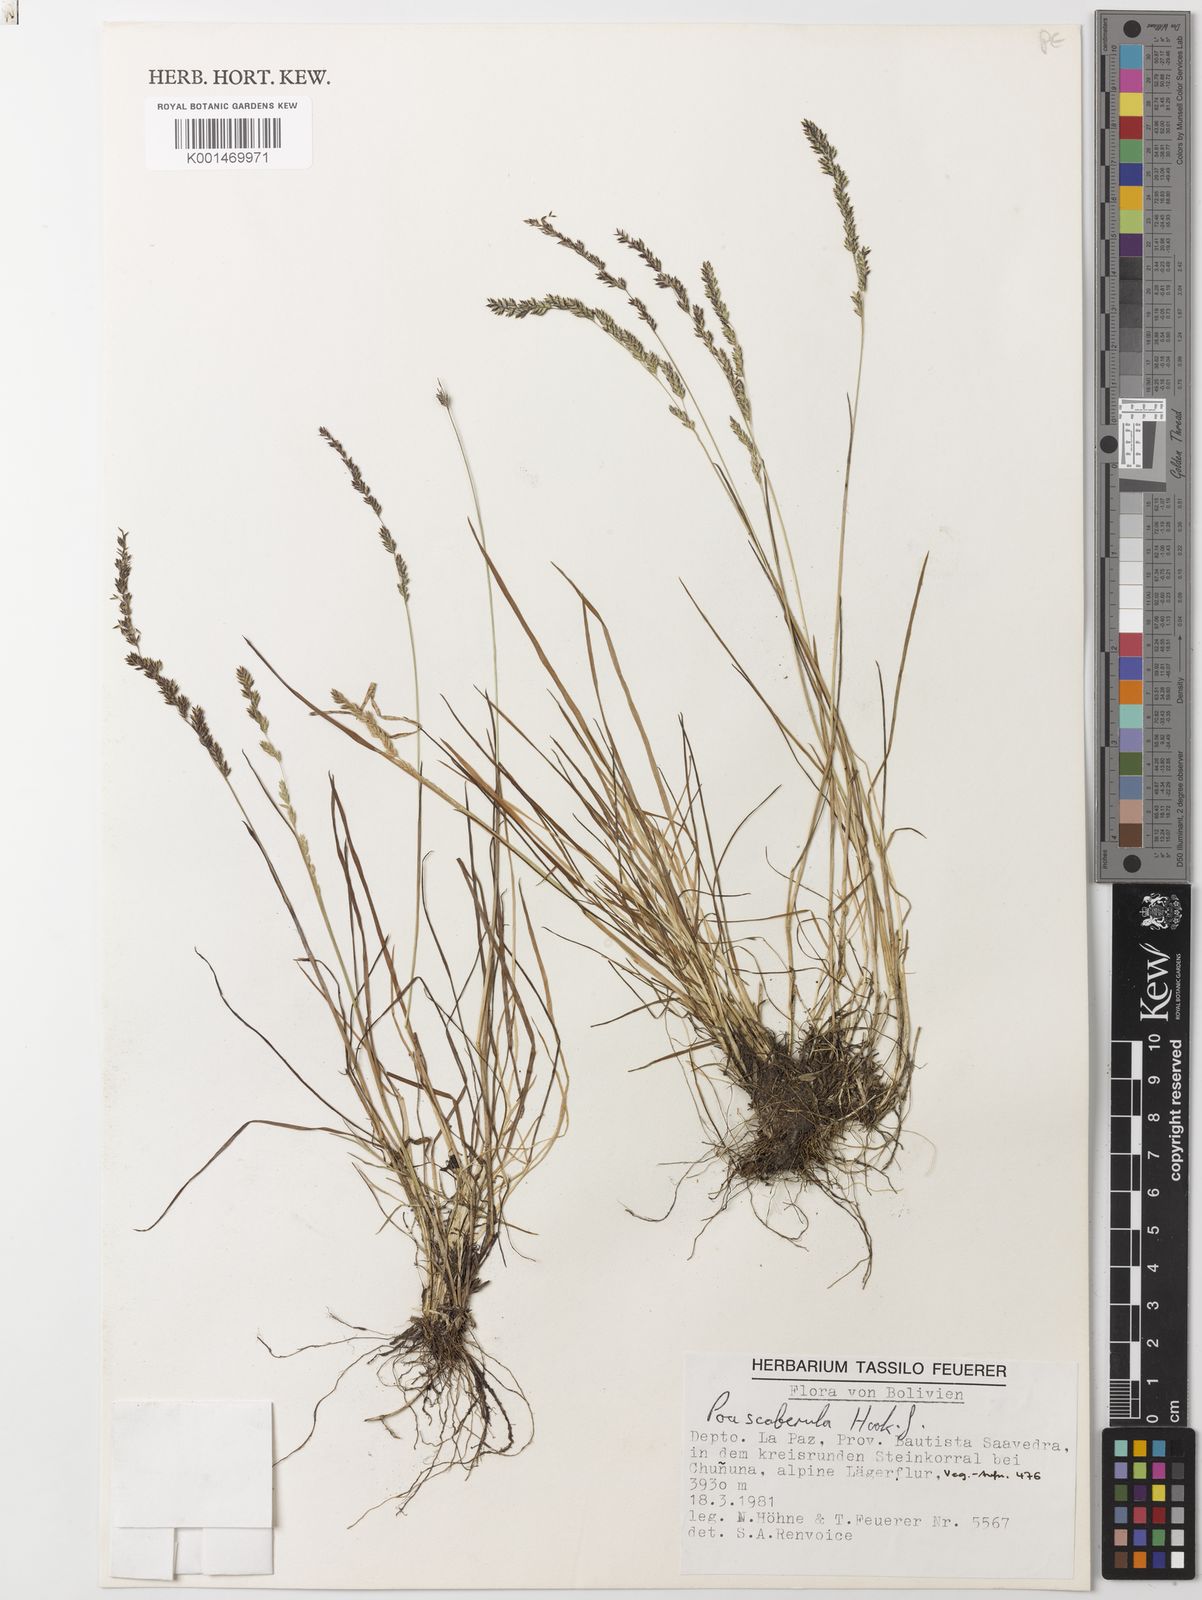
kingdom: Plantae
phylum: Tracheophyta
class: Liliopsida
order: Poales
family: Poaceae
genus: Poa
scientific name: Poa scaberula
